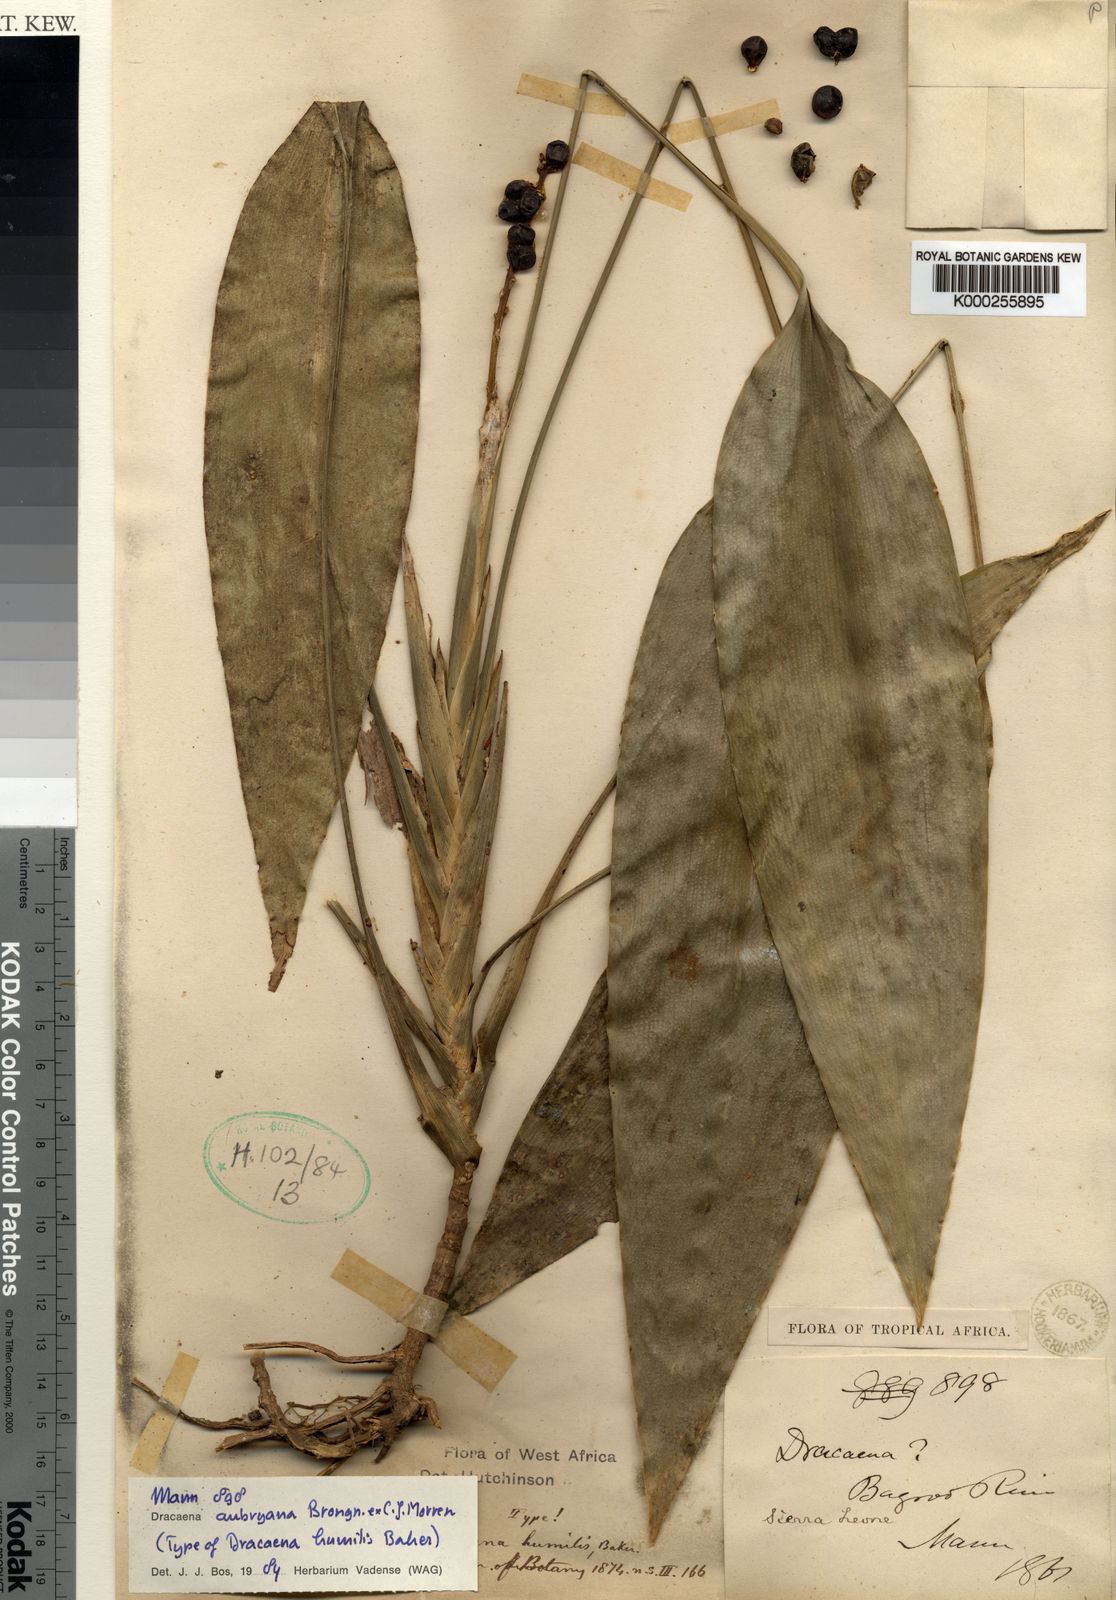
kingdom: Plantae
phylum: Tracheophyta
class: Liliopsida
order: Asparagales
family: Asparagaceae
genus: Dracaena
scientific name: Dracaena aubryana
